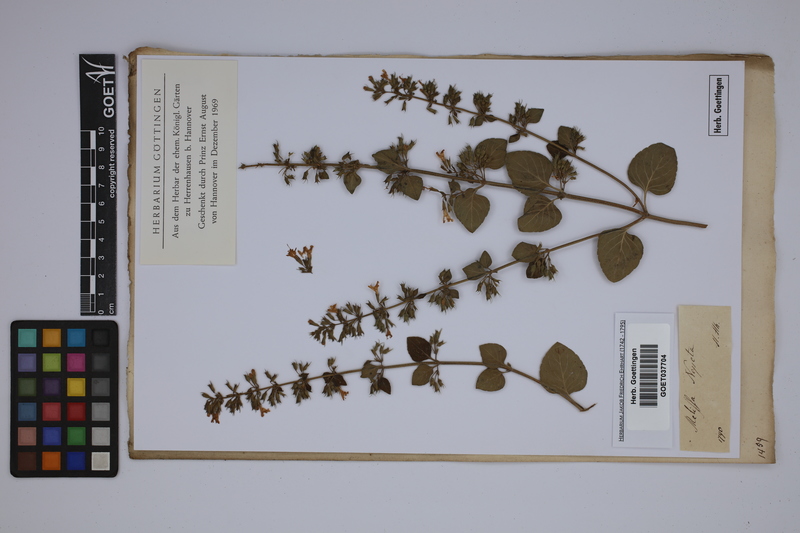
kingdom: Plantae
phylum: Tracheophyta
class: Magnoliopsida
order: Lamiales
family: Lamiaceae
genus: Clinopodium
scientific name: Clinopodium nepeta
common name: Lesser calamint
